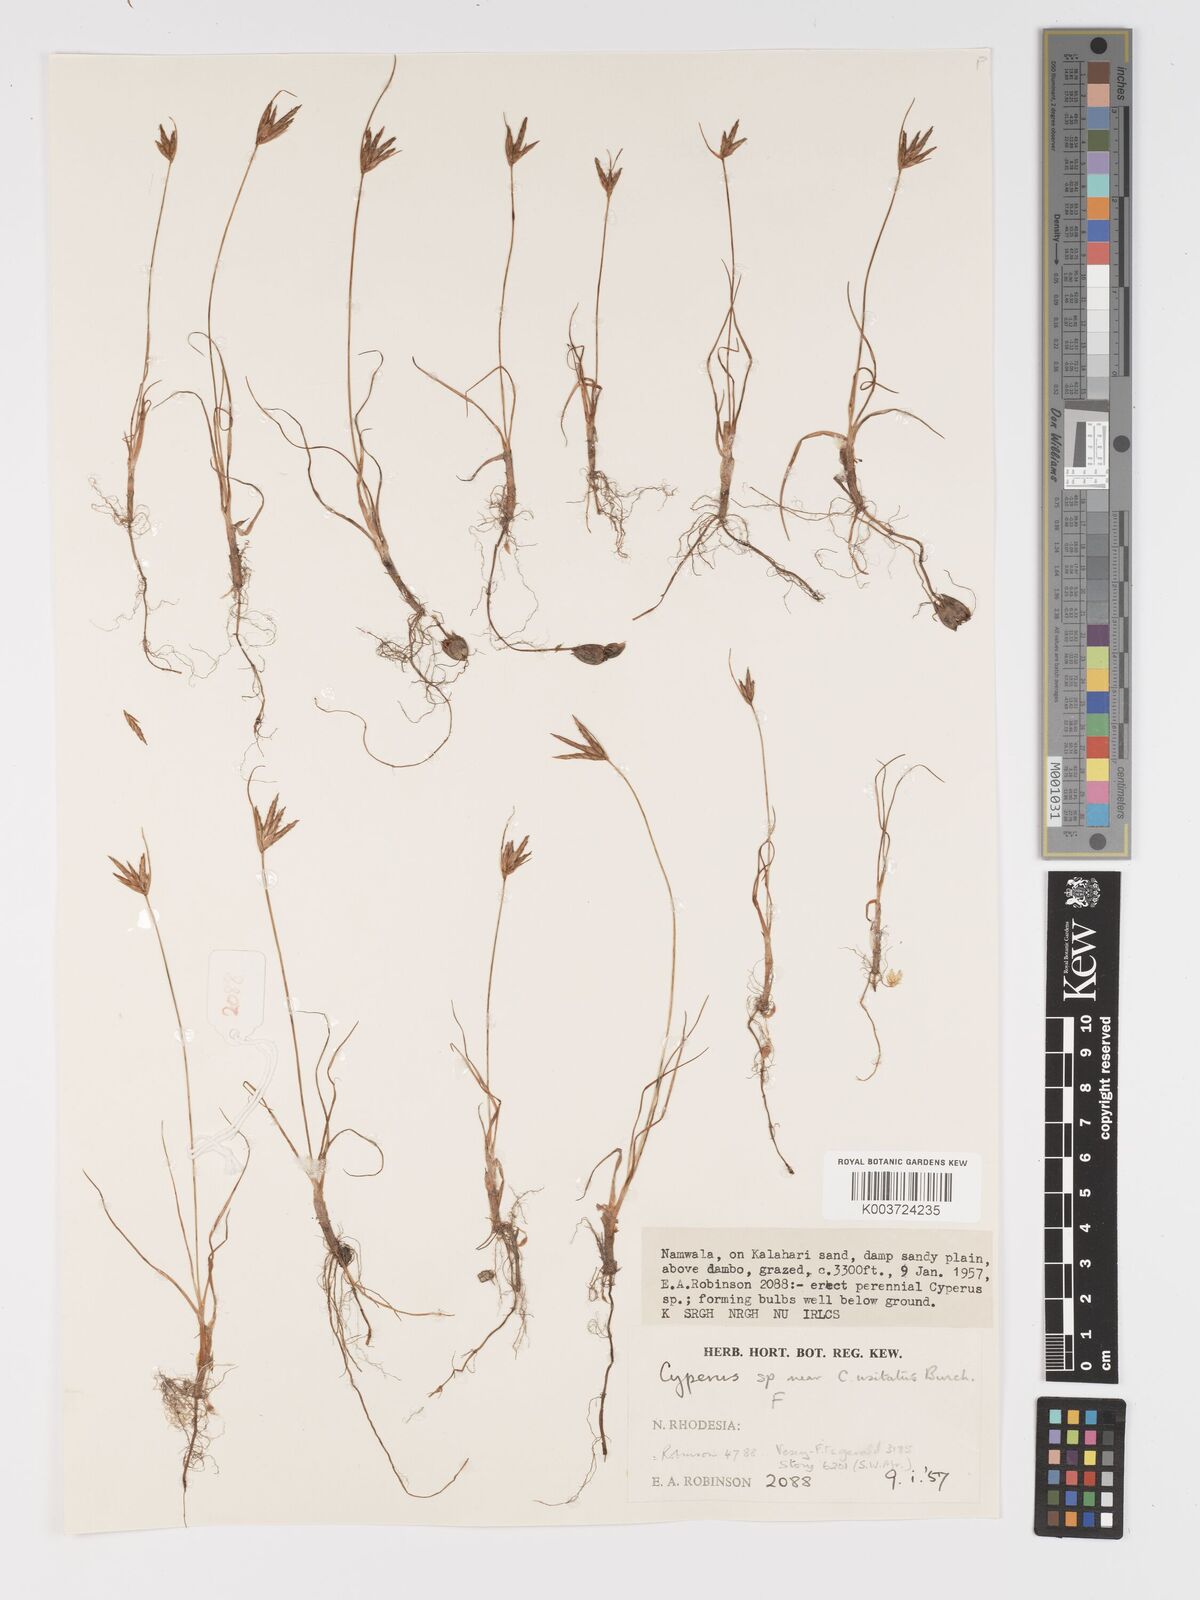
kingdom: Plantae
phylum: Tracheophyta
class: Liliopsida
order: Poales
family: Cyperaceae
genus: Cyperus
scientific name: Cyperus palmatus
